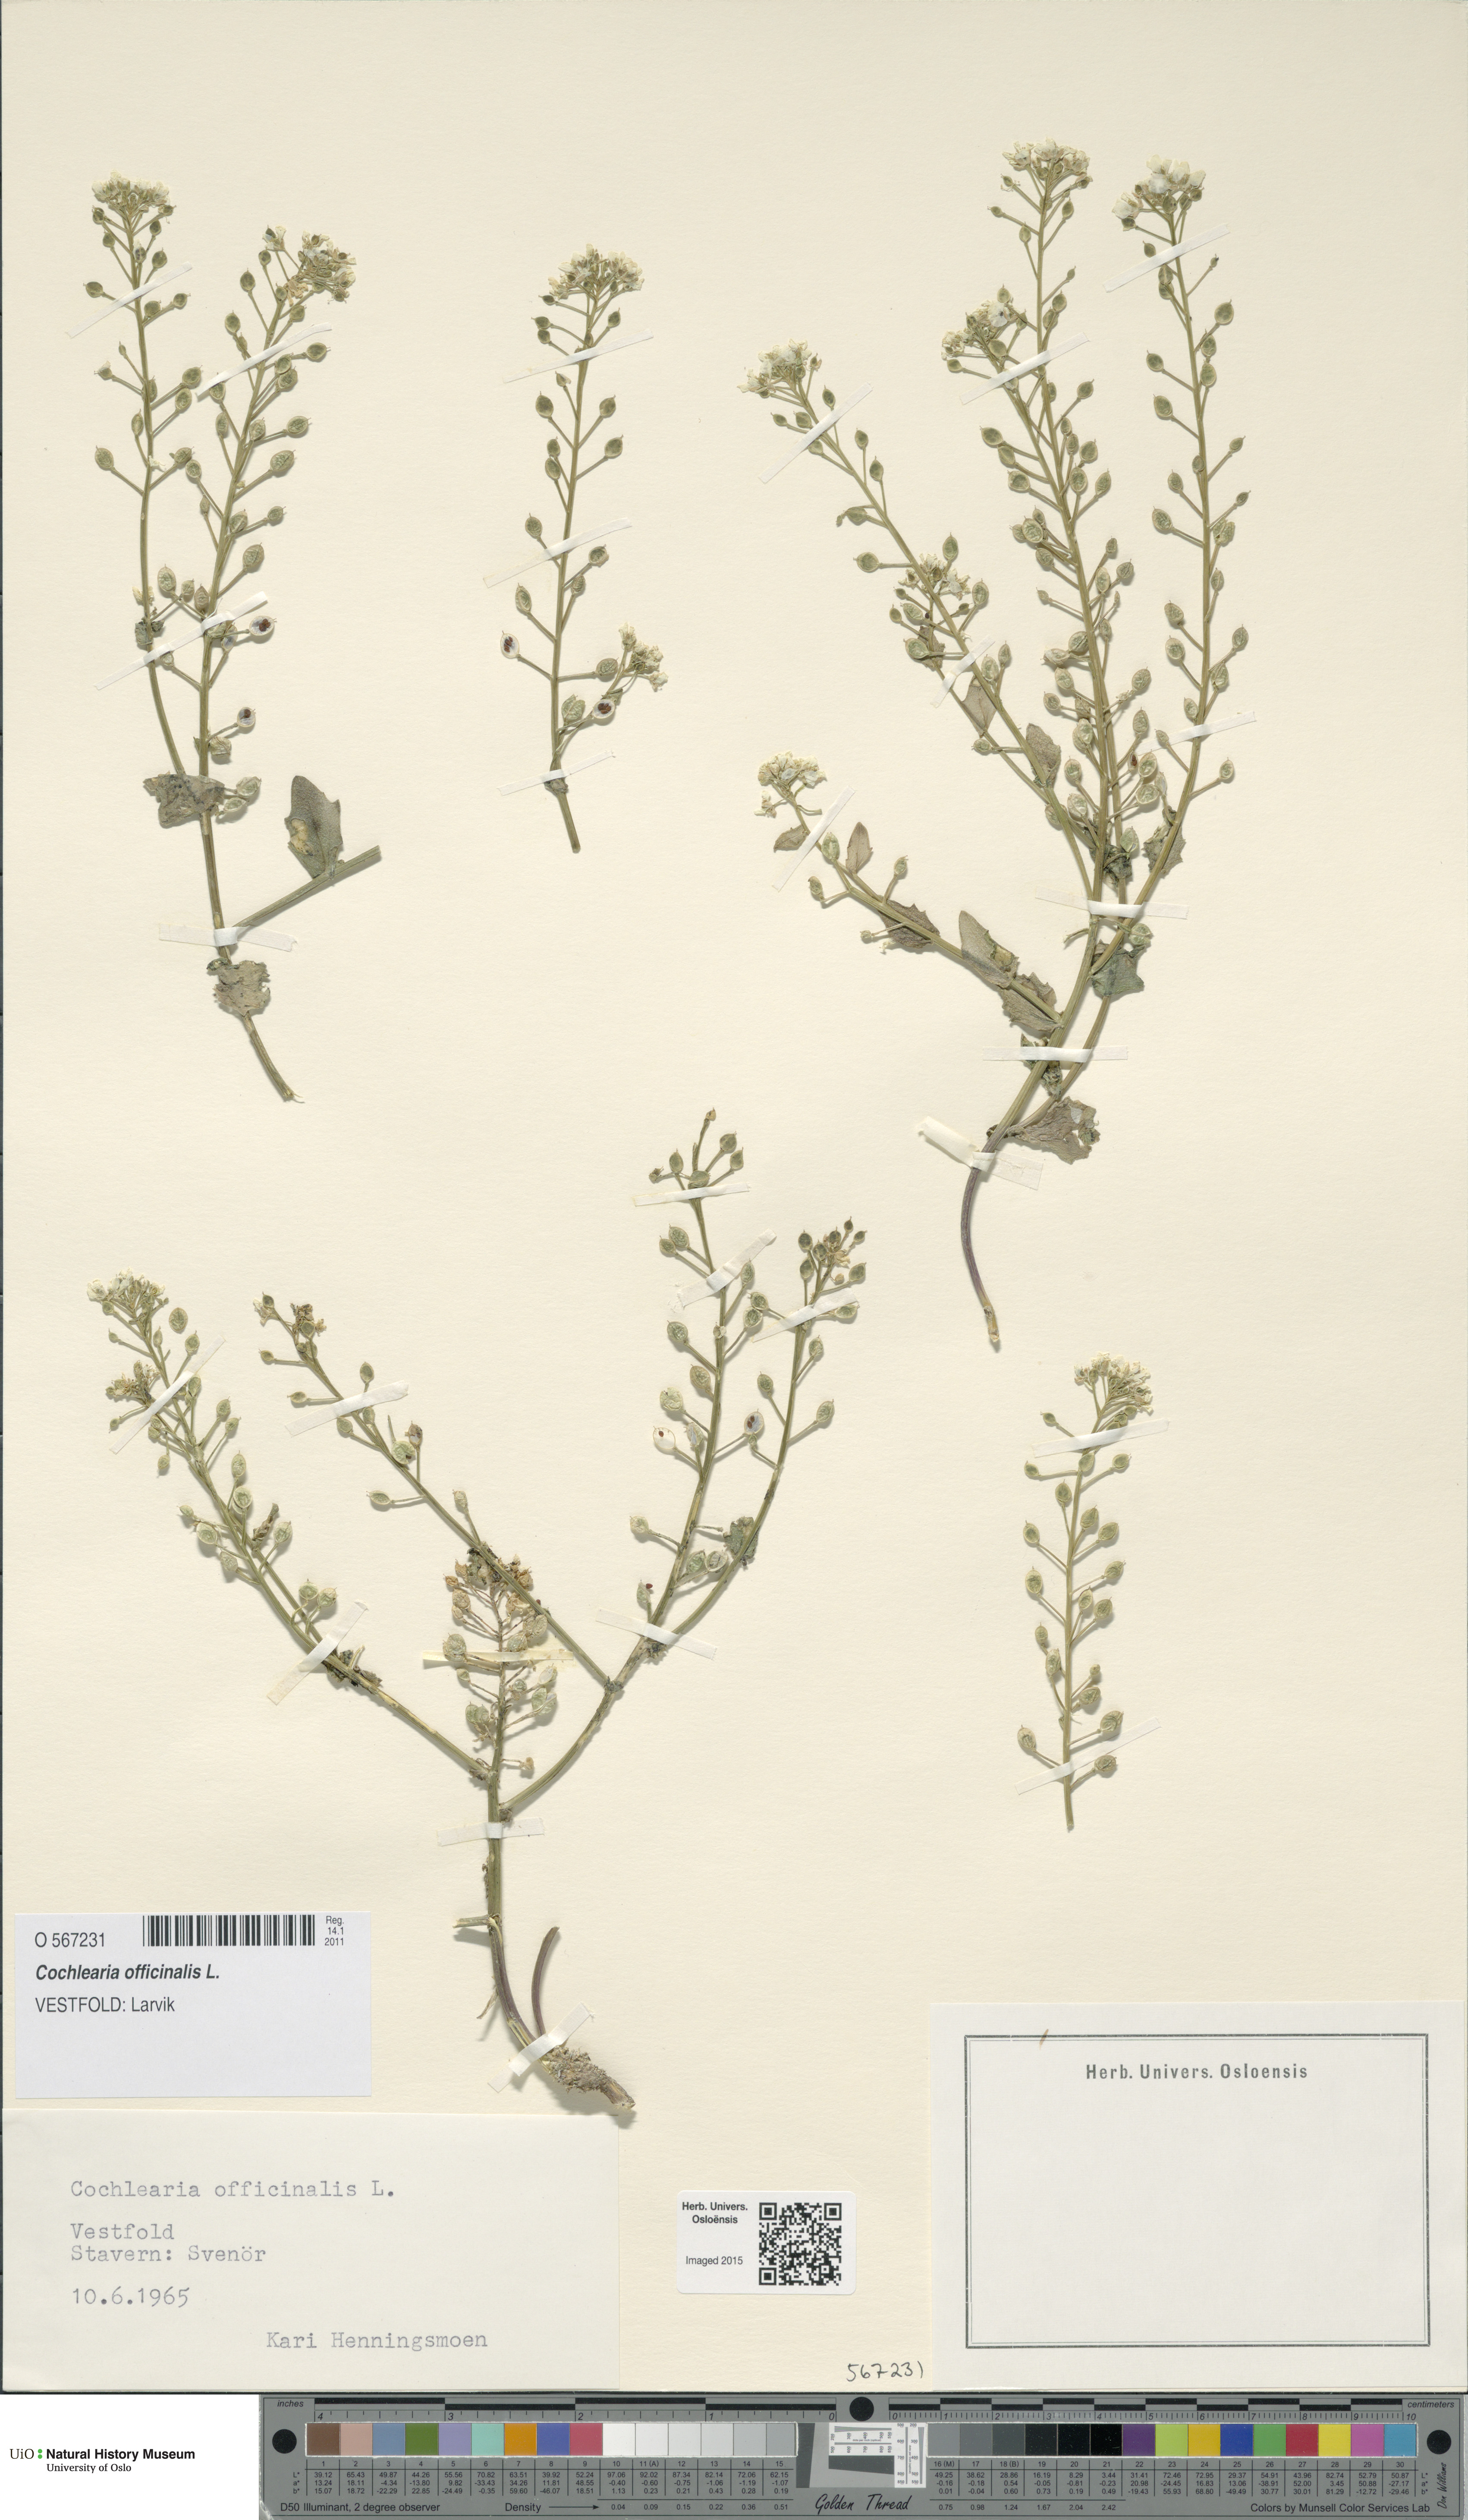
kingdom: Plantae
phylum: Tracheophyta
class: Magnoliopsida
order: Brassicales
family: Brassicaceae
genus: Cochlearia
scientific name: Cochlearia officinalis
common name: Scurvy-grass
